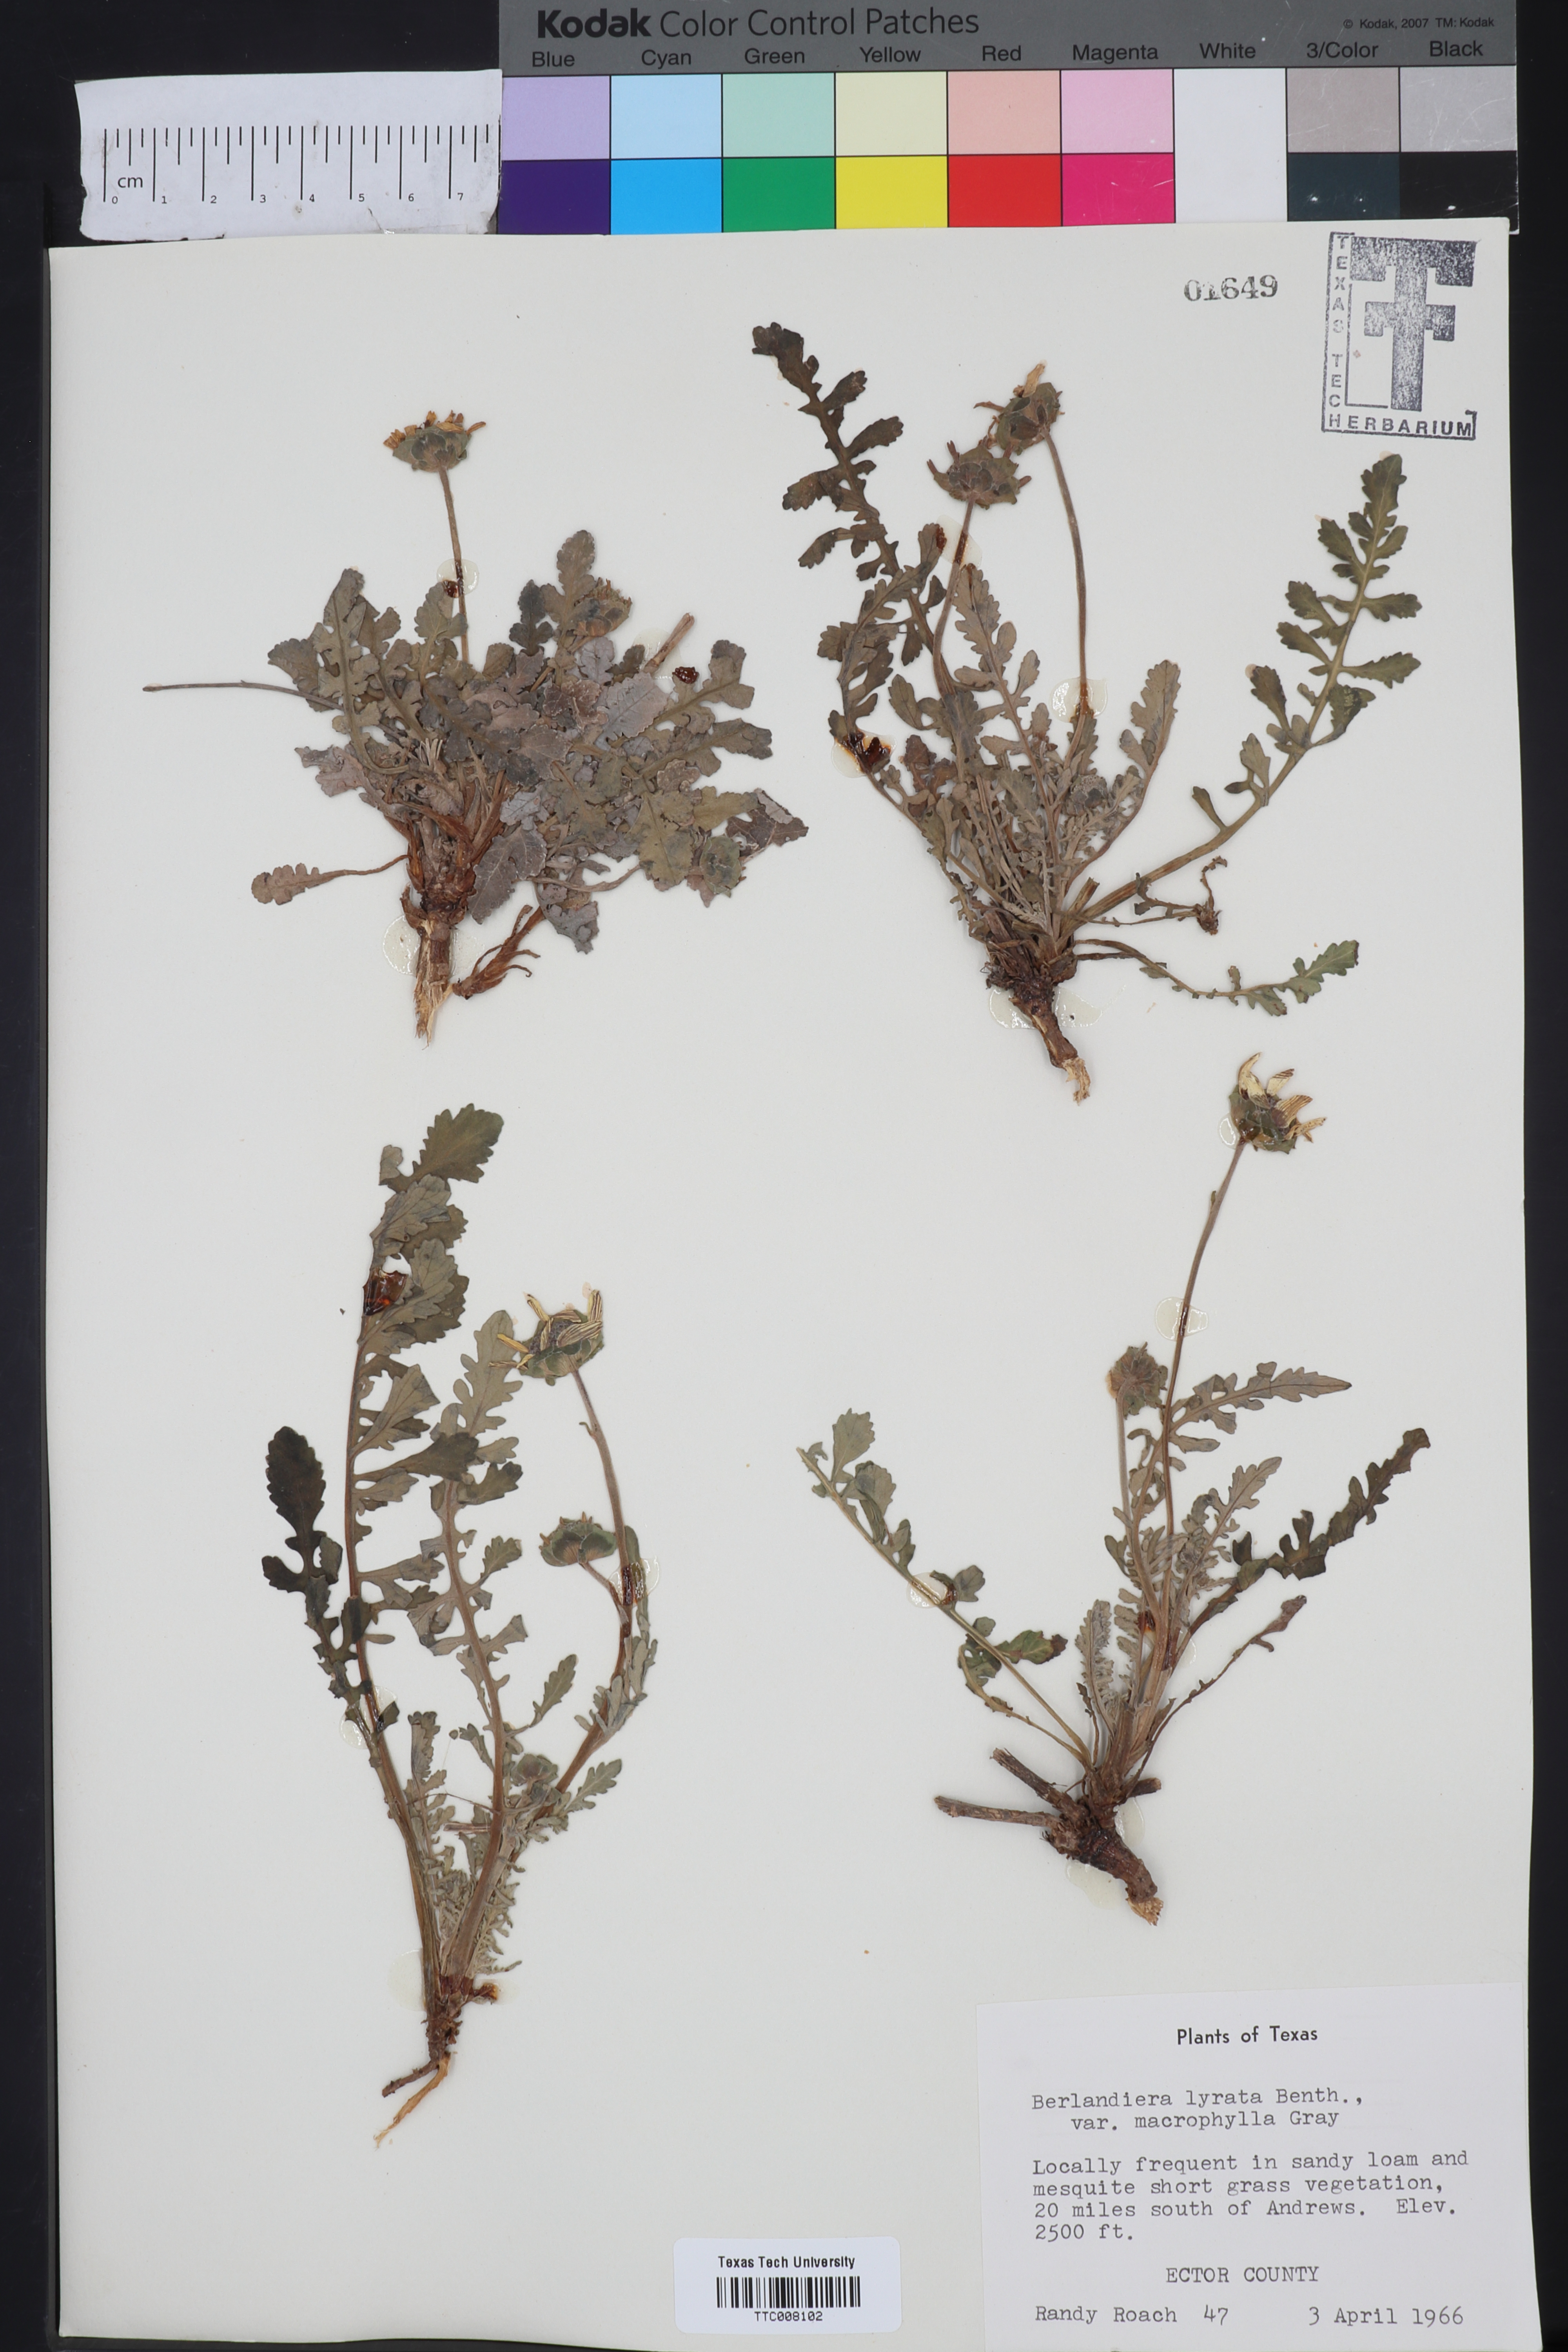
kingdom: Plantae
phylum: Tracheophyta
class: Magnoliopsida
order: Asterales
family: Asteraceae
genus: Berlandiera
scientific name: Berlandiera macrophylla
